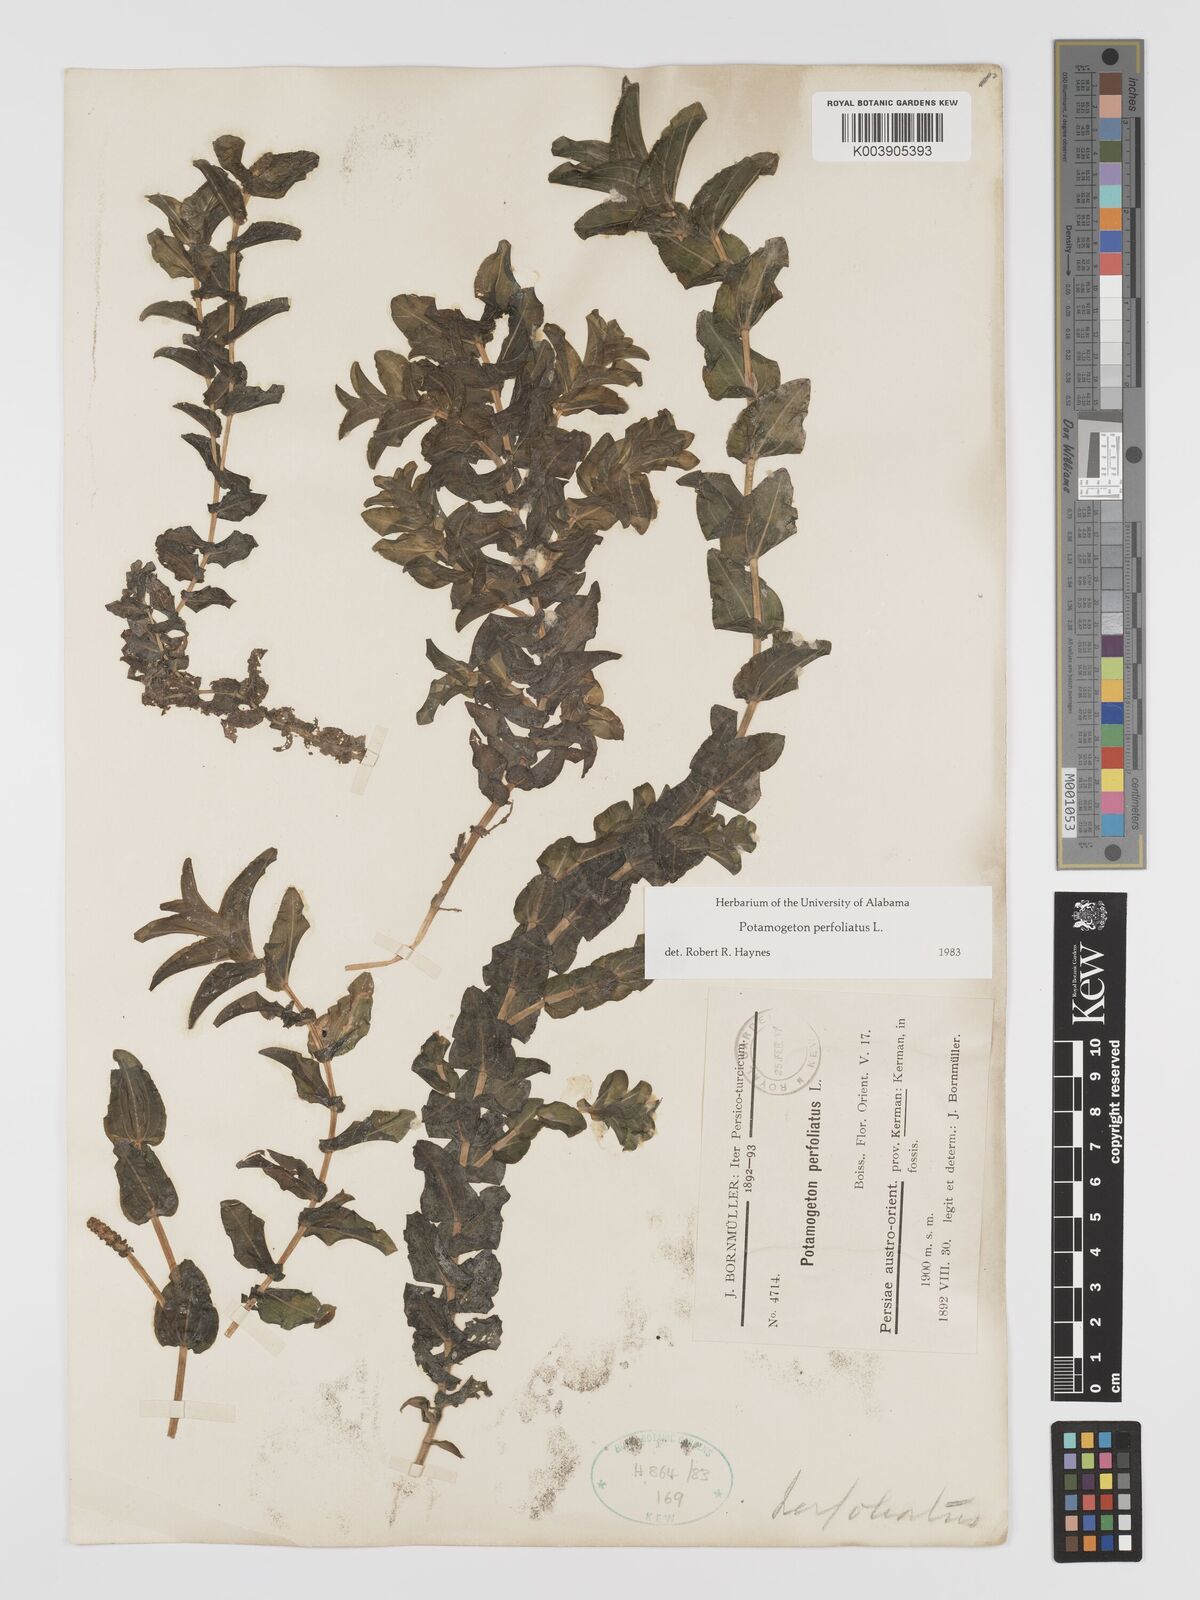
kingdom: Plantae
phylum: Tracheophyta
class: Liliopsida
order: Alismatales
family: Potamogetonaceae
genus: Potamogeton
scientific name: Potamogeton perfoliatus
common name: Perfoliate pondweed
